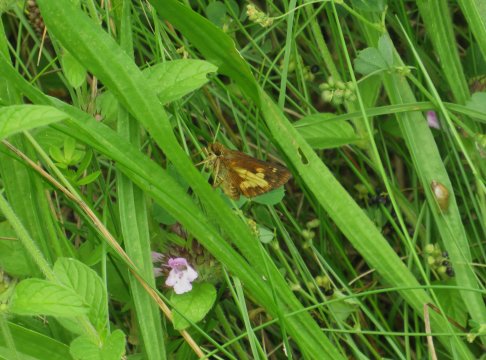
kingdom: Animalia
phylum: Arthropoda
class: Insecta
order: Lepidoptera
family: Hesperiidae
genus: Poanes
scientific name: Poanes massasoit
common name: Mulberry Wing
